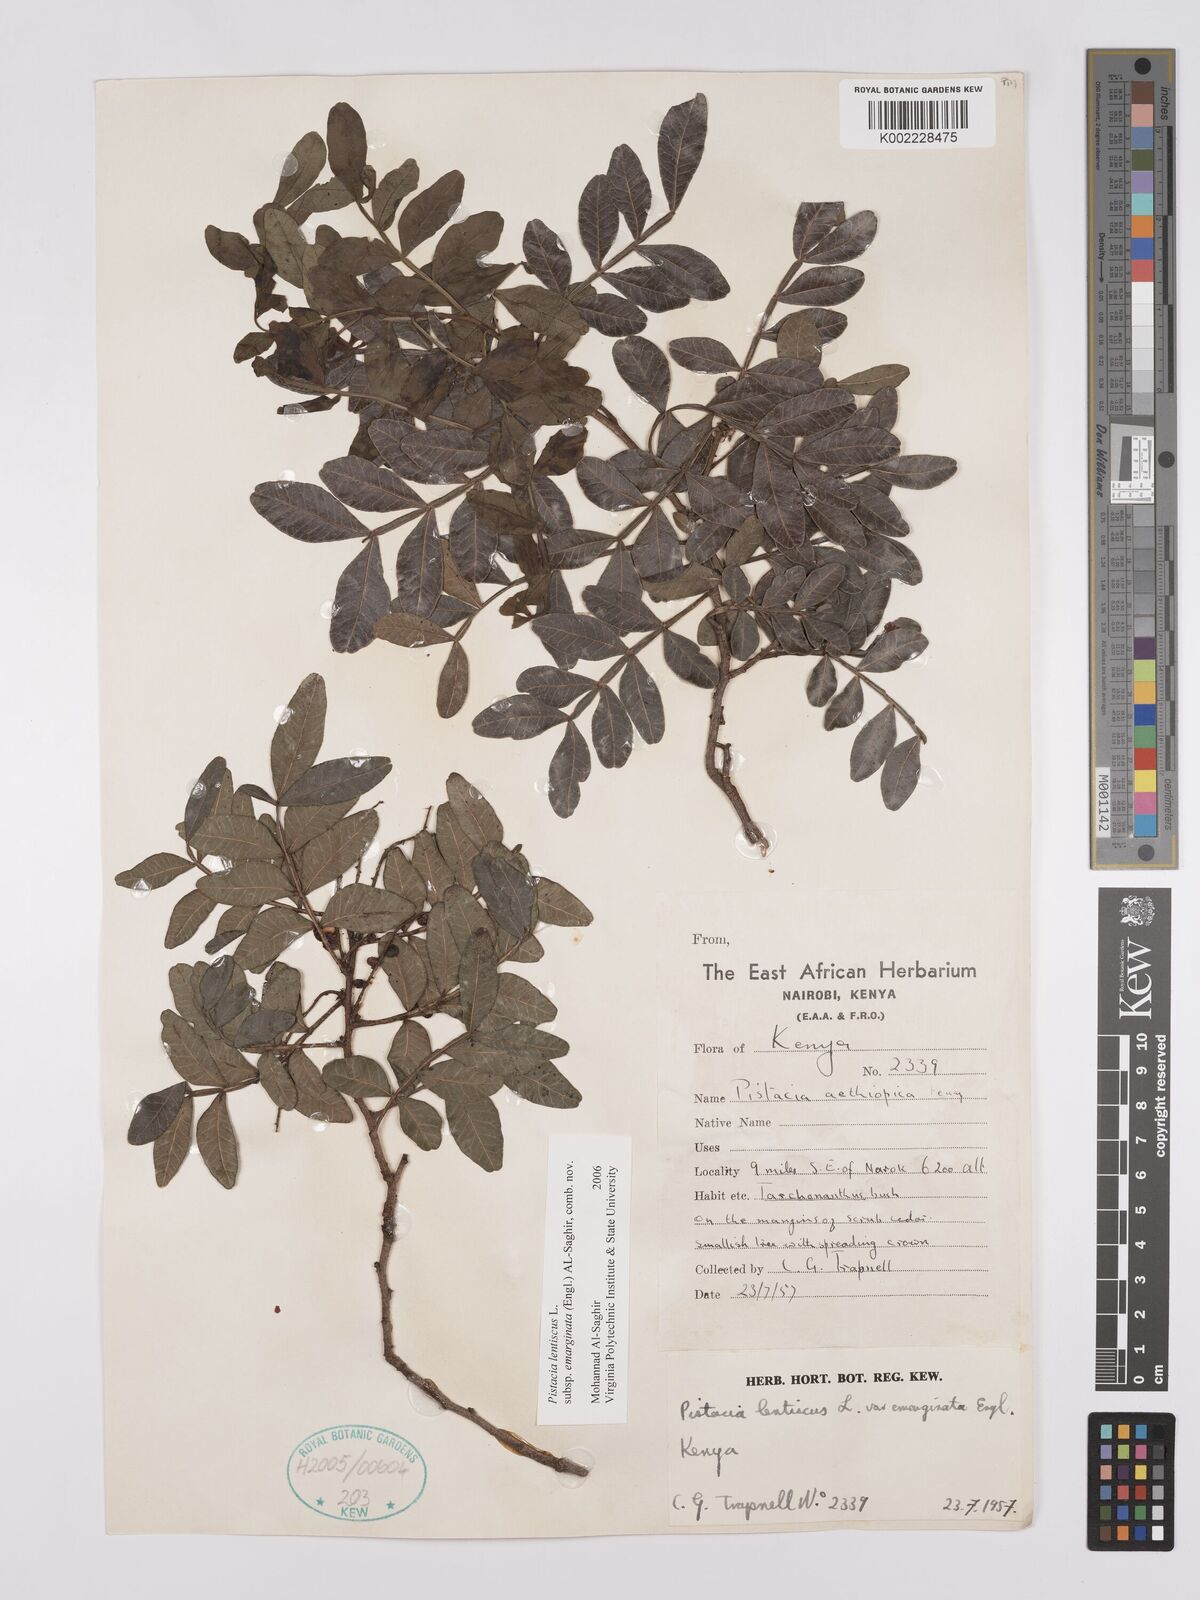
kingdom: Plantae
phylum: Tracheophyta
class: Magnoliopsida
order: Sapindales
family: Anacardiaceae
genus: Pistacia
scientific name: Pistacia lentiscus
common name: Lentisk
